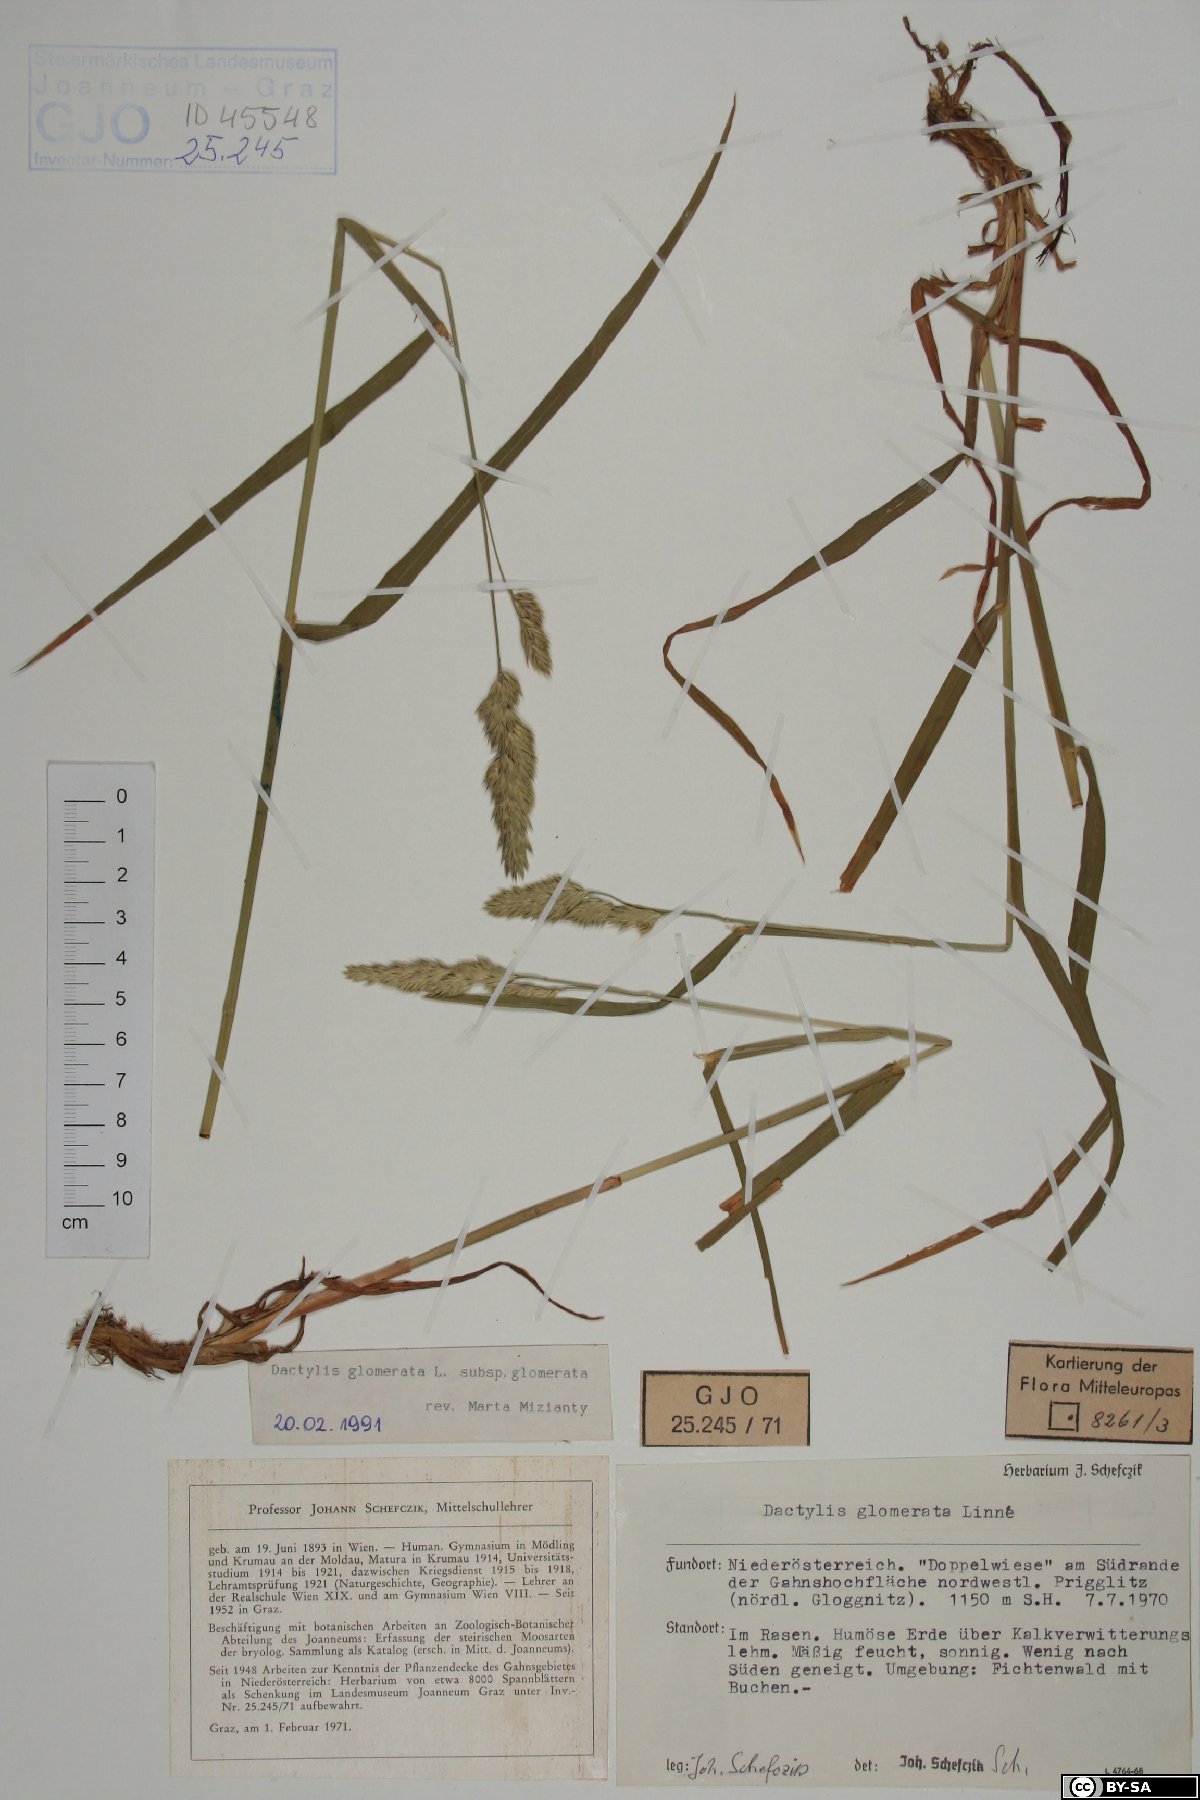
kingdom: Plantae
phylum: Tracheophyta
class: Liliopsida
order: Poales
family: Poaceae
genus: Dactylis
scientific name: Dactylis glomerata
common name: Orchardgrass
